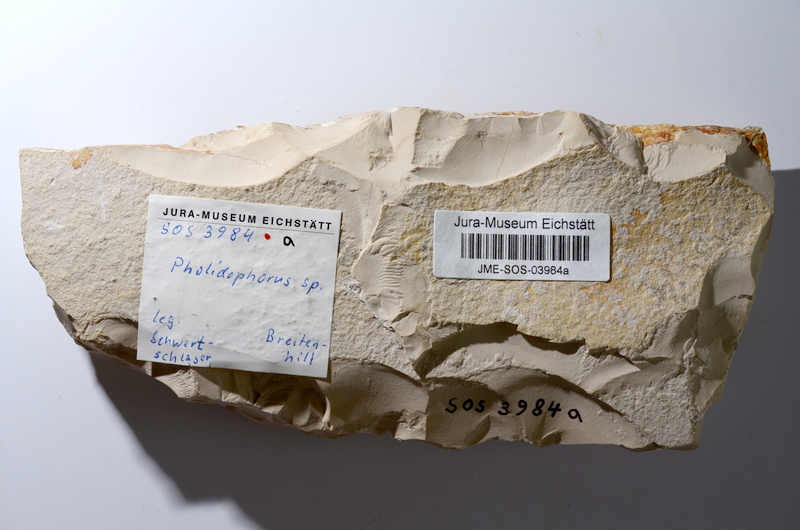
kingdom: Animalia
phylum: Chordata
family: Ankylophoridae
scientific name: Ankylophoridae
